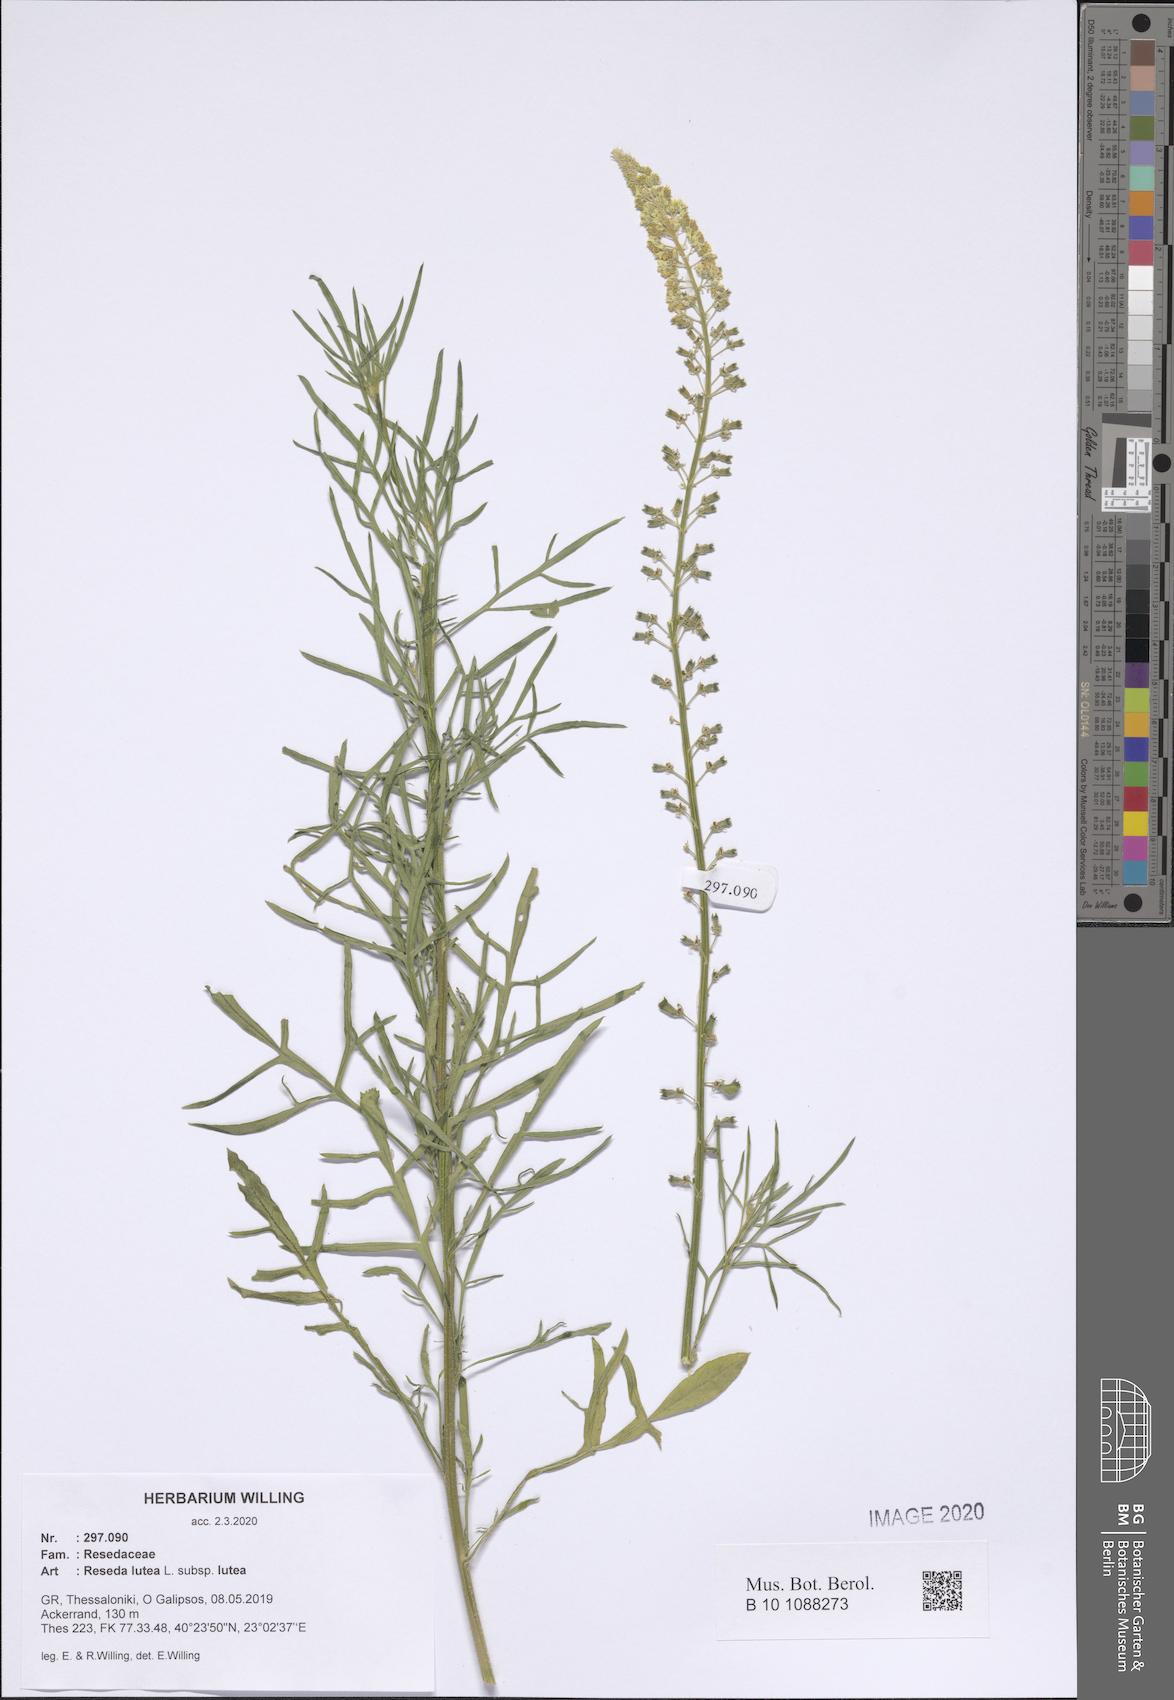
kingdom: Plantae
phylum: Tracheophyta
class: Magnoliopsida
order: Brassicales
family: Resedaceae
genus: Reseda
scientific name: Reseda lutea
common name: Wild mignonette
